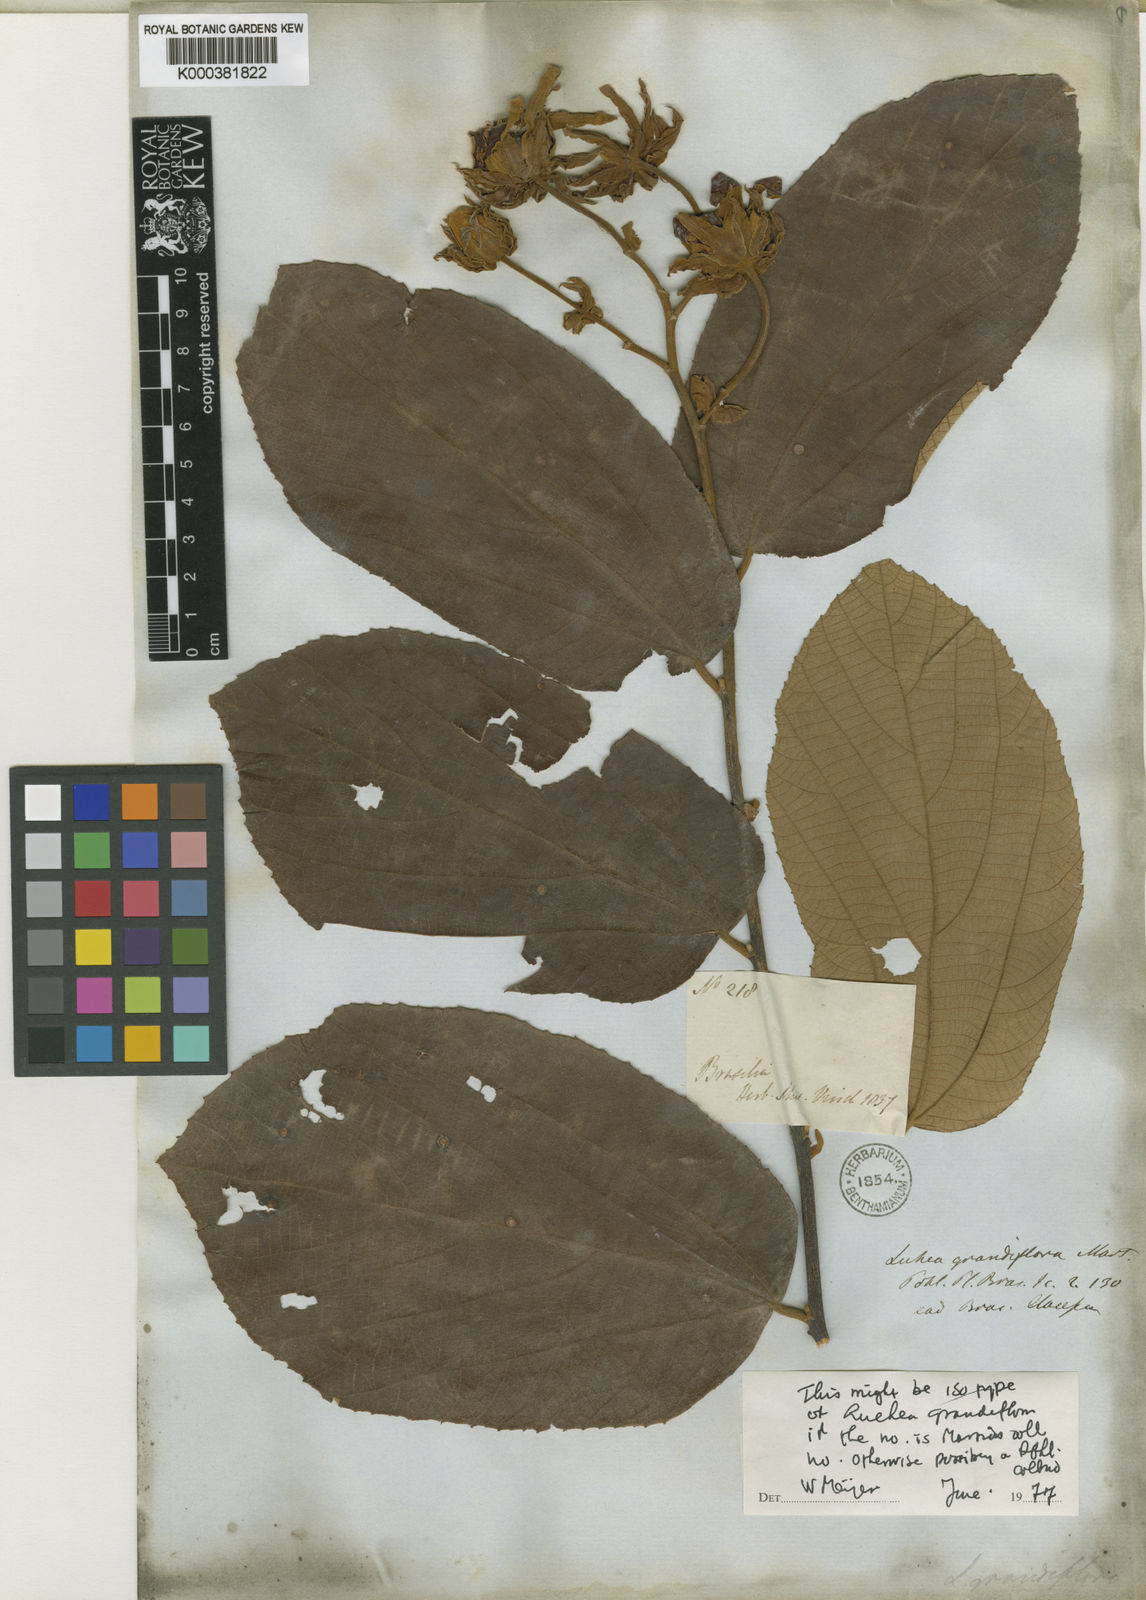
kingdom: Plantae
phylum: Tracheophyta
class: Magnoliopsida
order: Malvales
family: Malvaceae
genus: Luehea
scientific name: Luehea grandiflora
